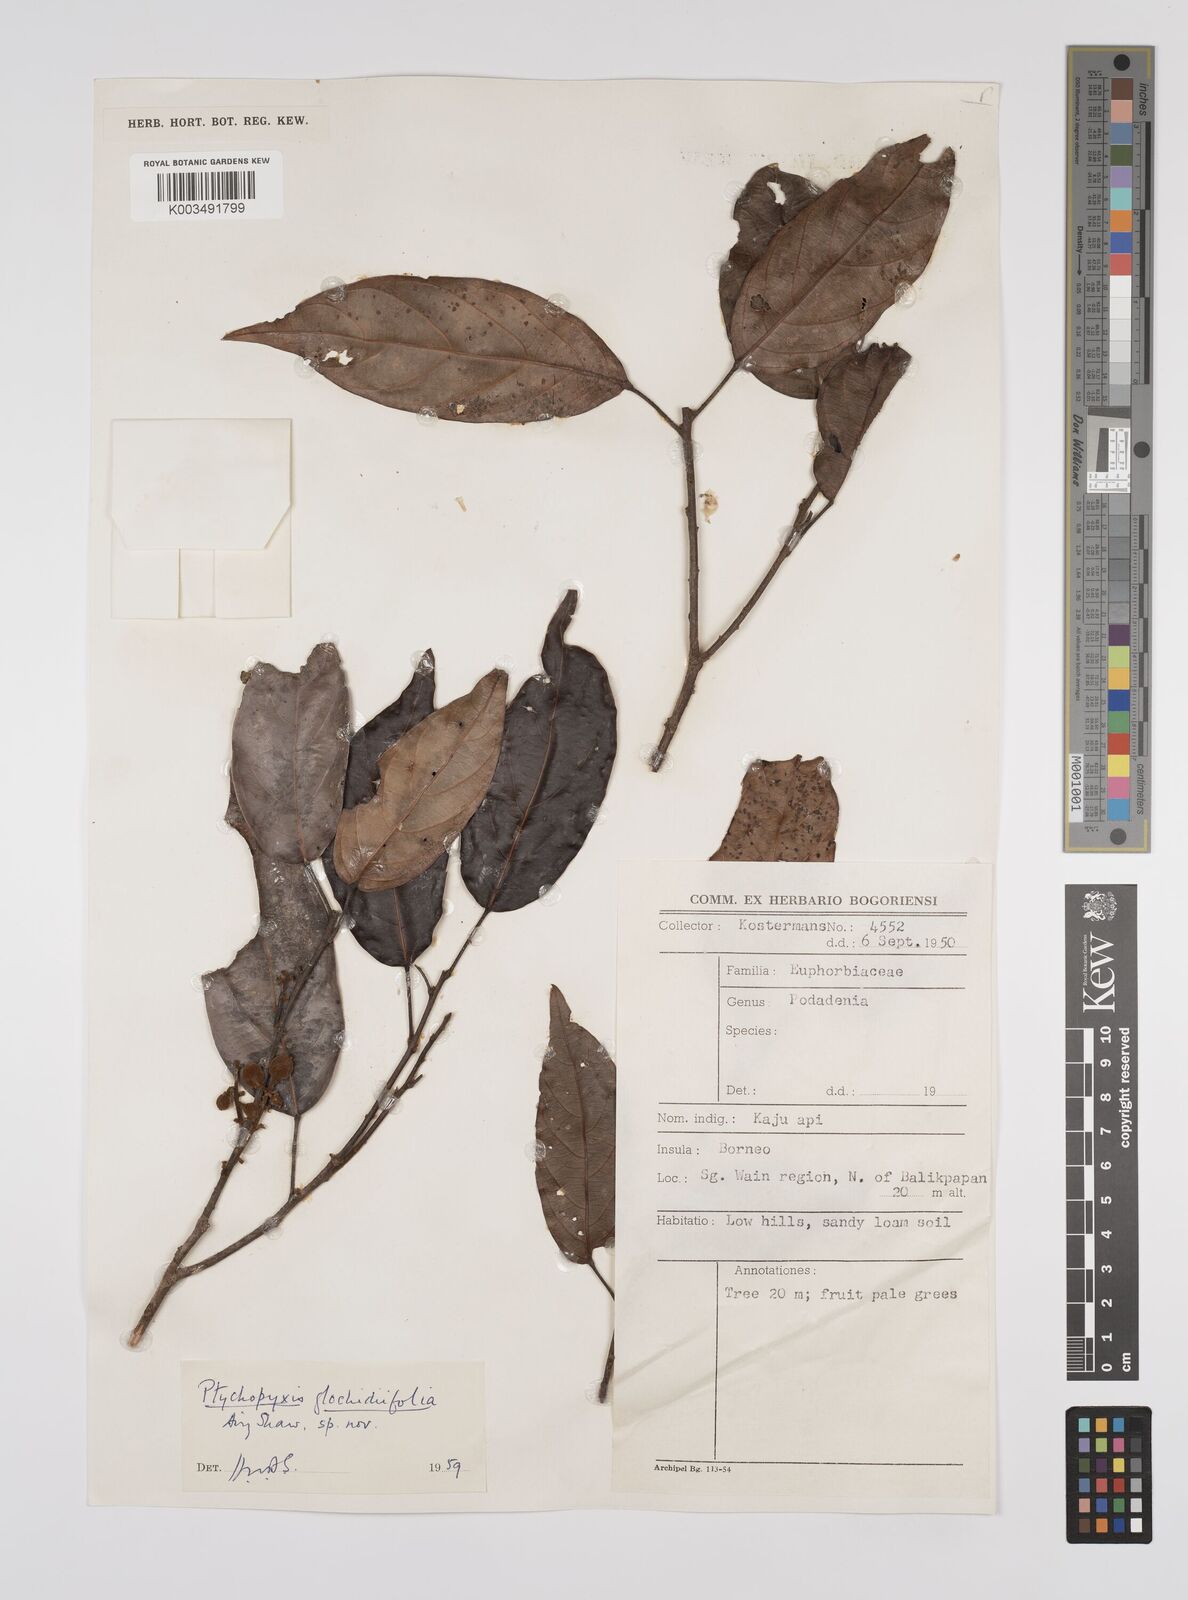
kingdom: Plantae
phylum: Tracheophyta
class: Magnoliopsida
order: Malpighiales
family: Euphorbiaceae
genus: Ptychopyxis
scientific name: Ptychopyxis glochidiifolia
